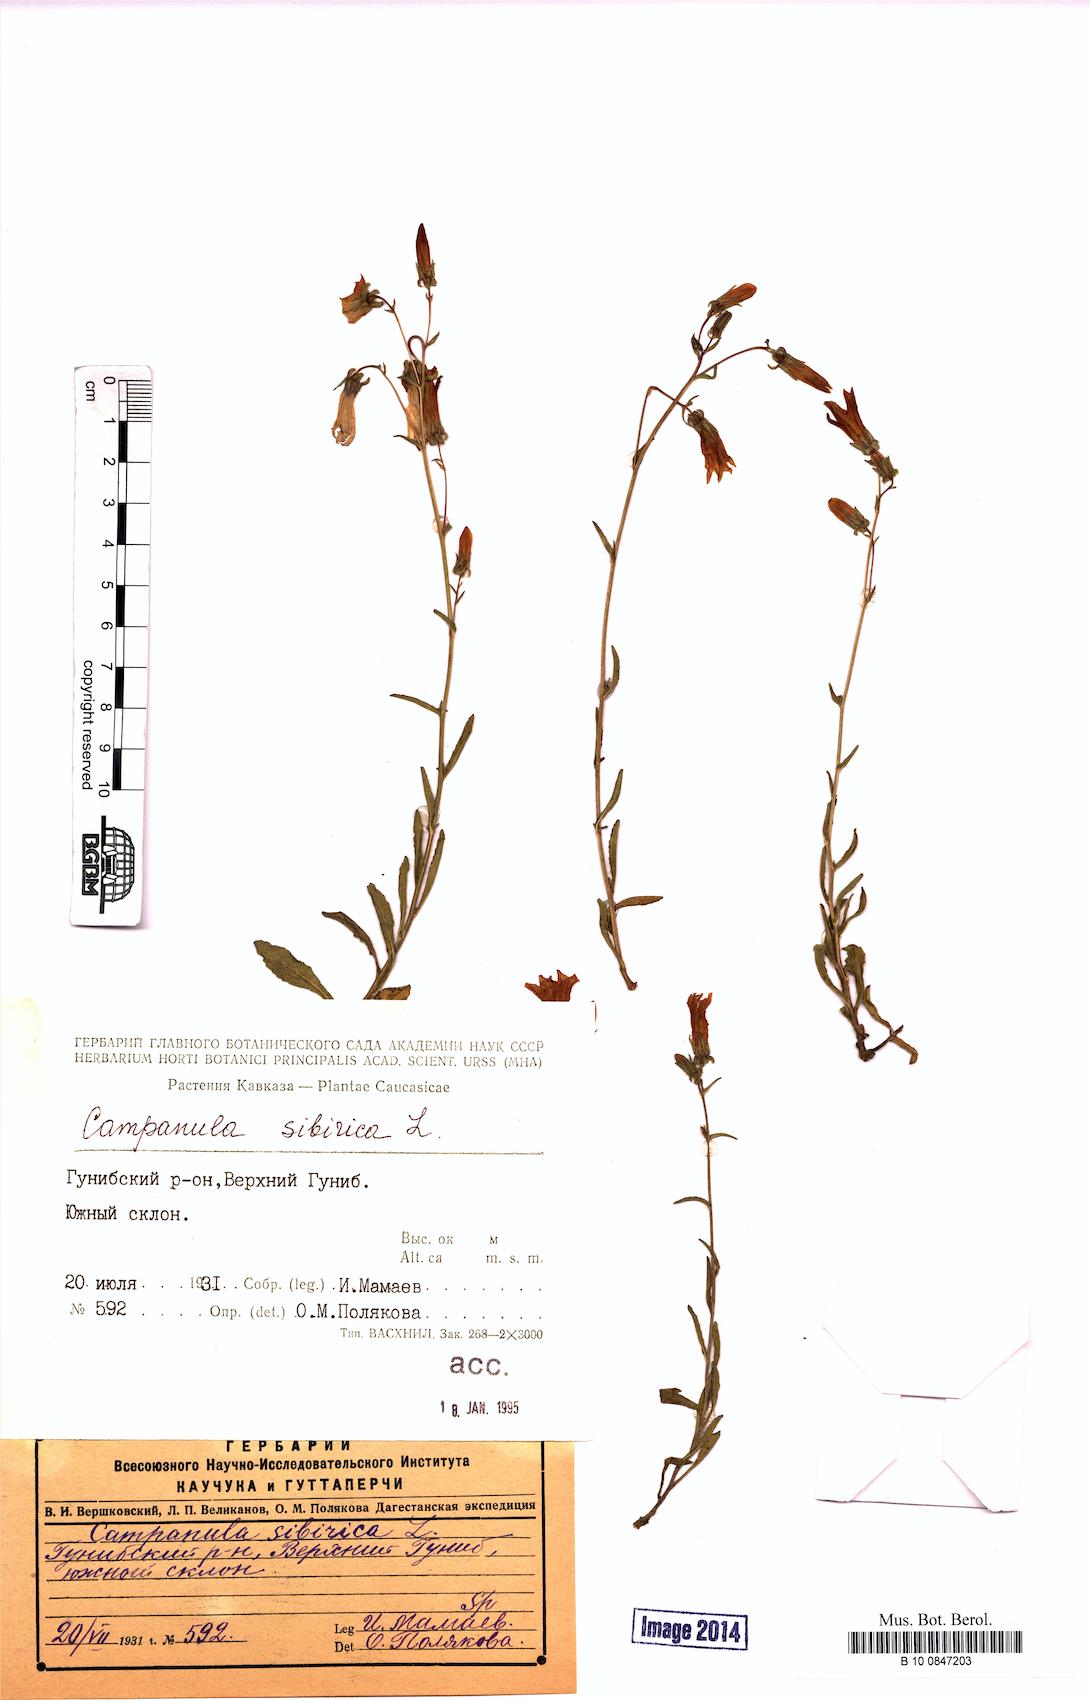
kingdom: Plantae
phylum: Tracheophyta
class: Magnoliopsida
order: Asterales
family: Campanulaceae
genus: Campanula
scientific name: Campanula sibirica
